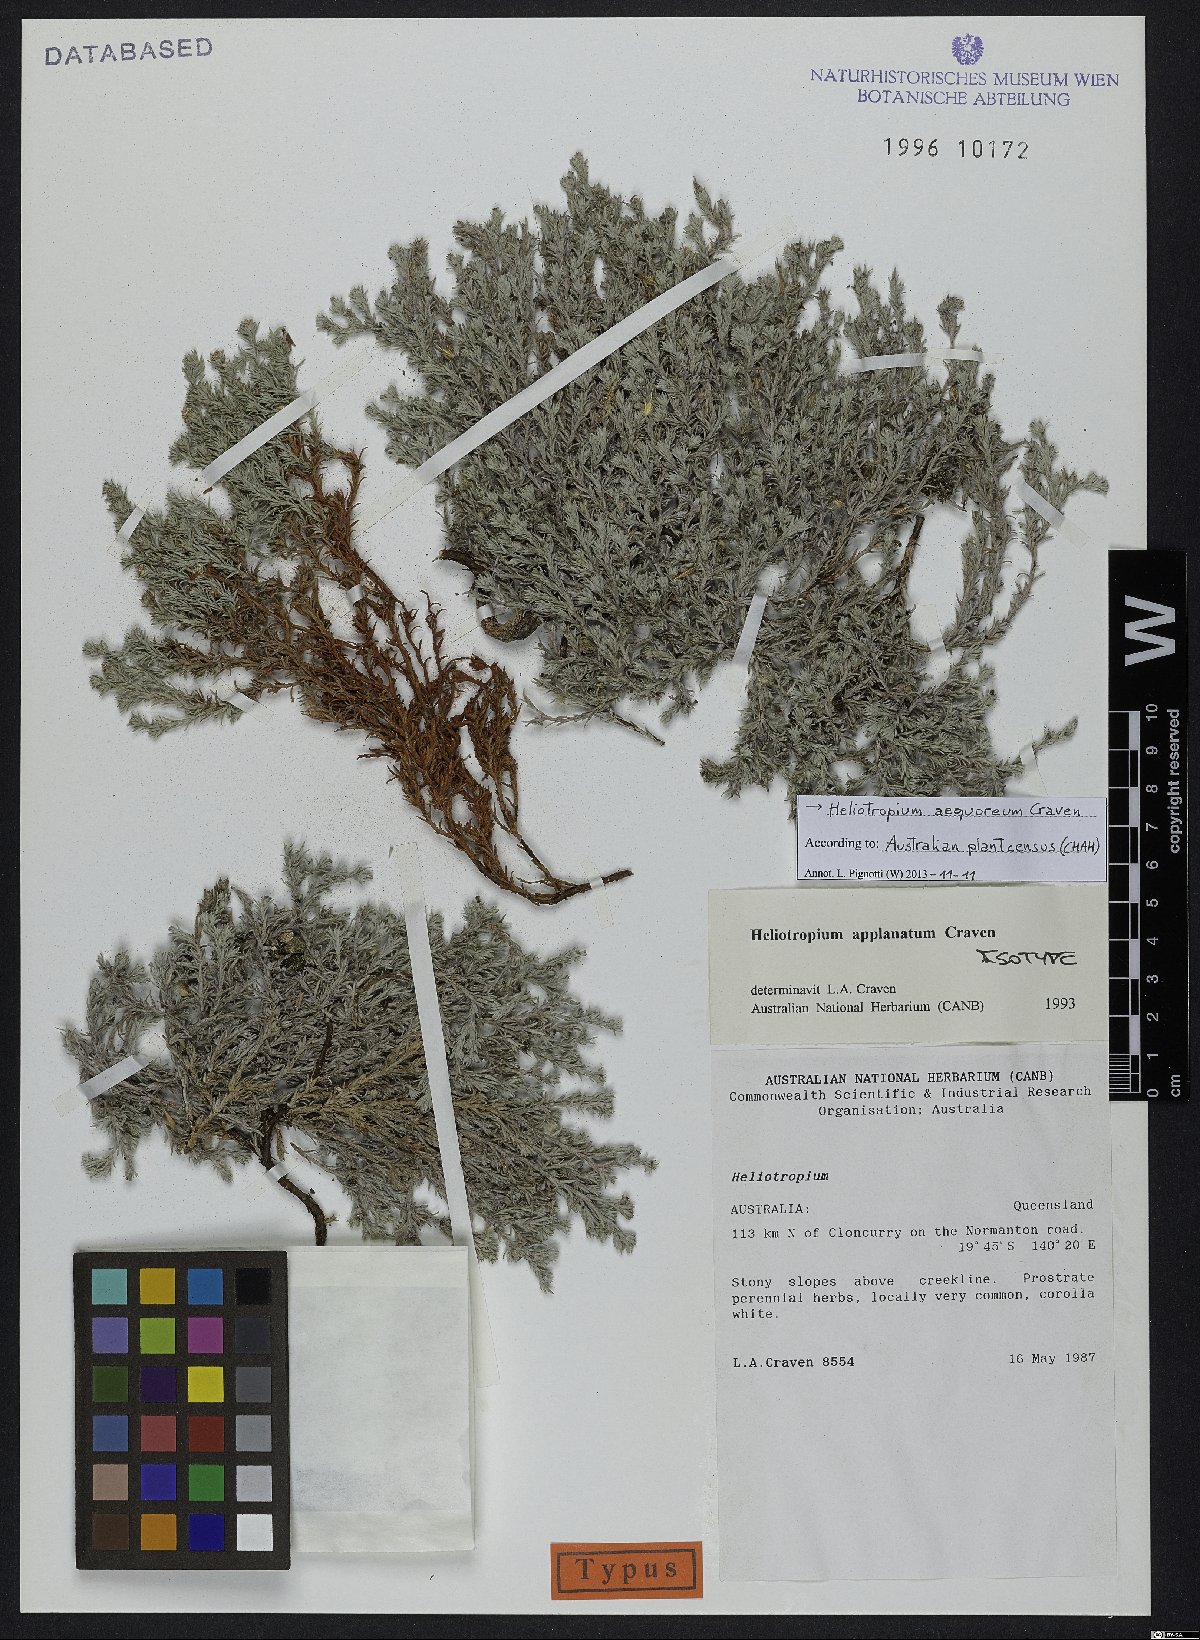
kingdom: Plantae
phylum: Tracheophyta
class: Magnoliopsida
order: Boraginales
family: Heliotropiaceae
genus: Euploca
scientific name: Euploca aequorea
